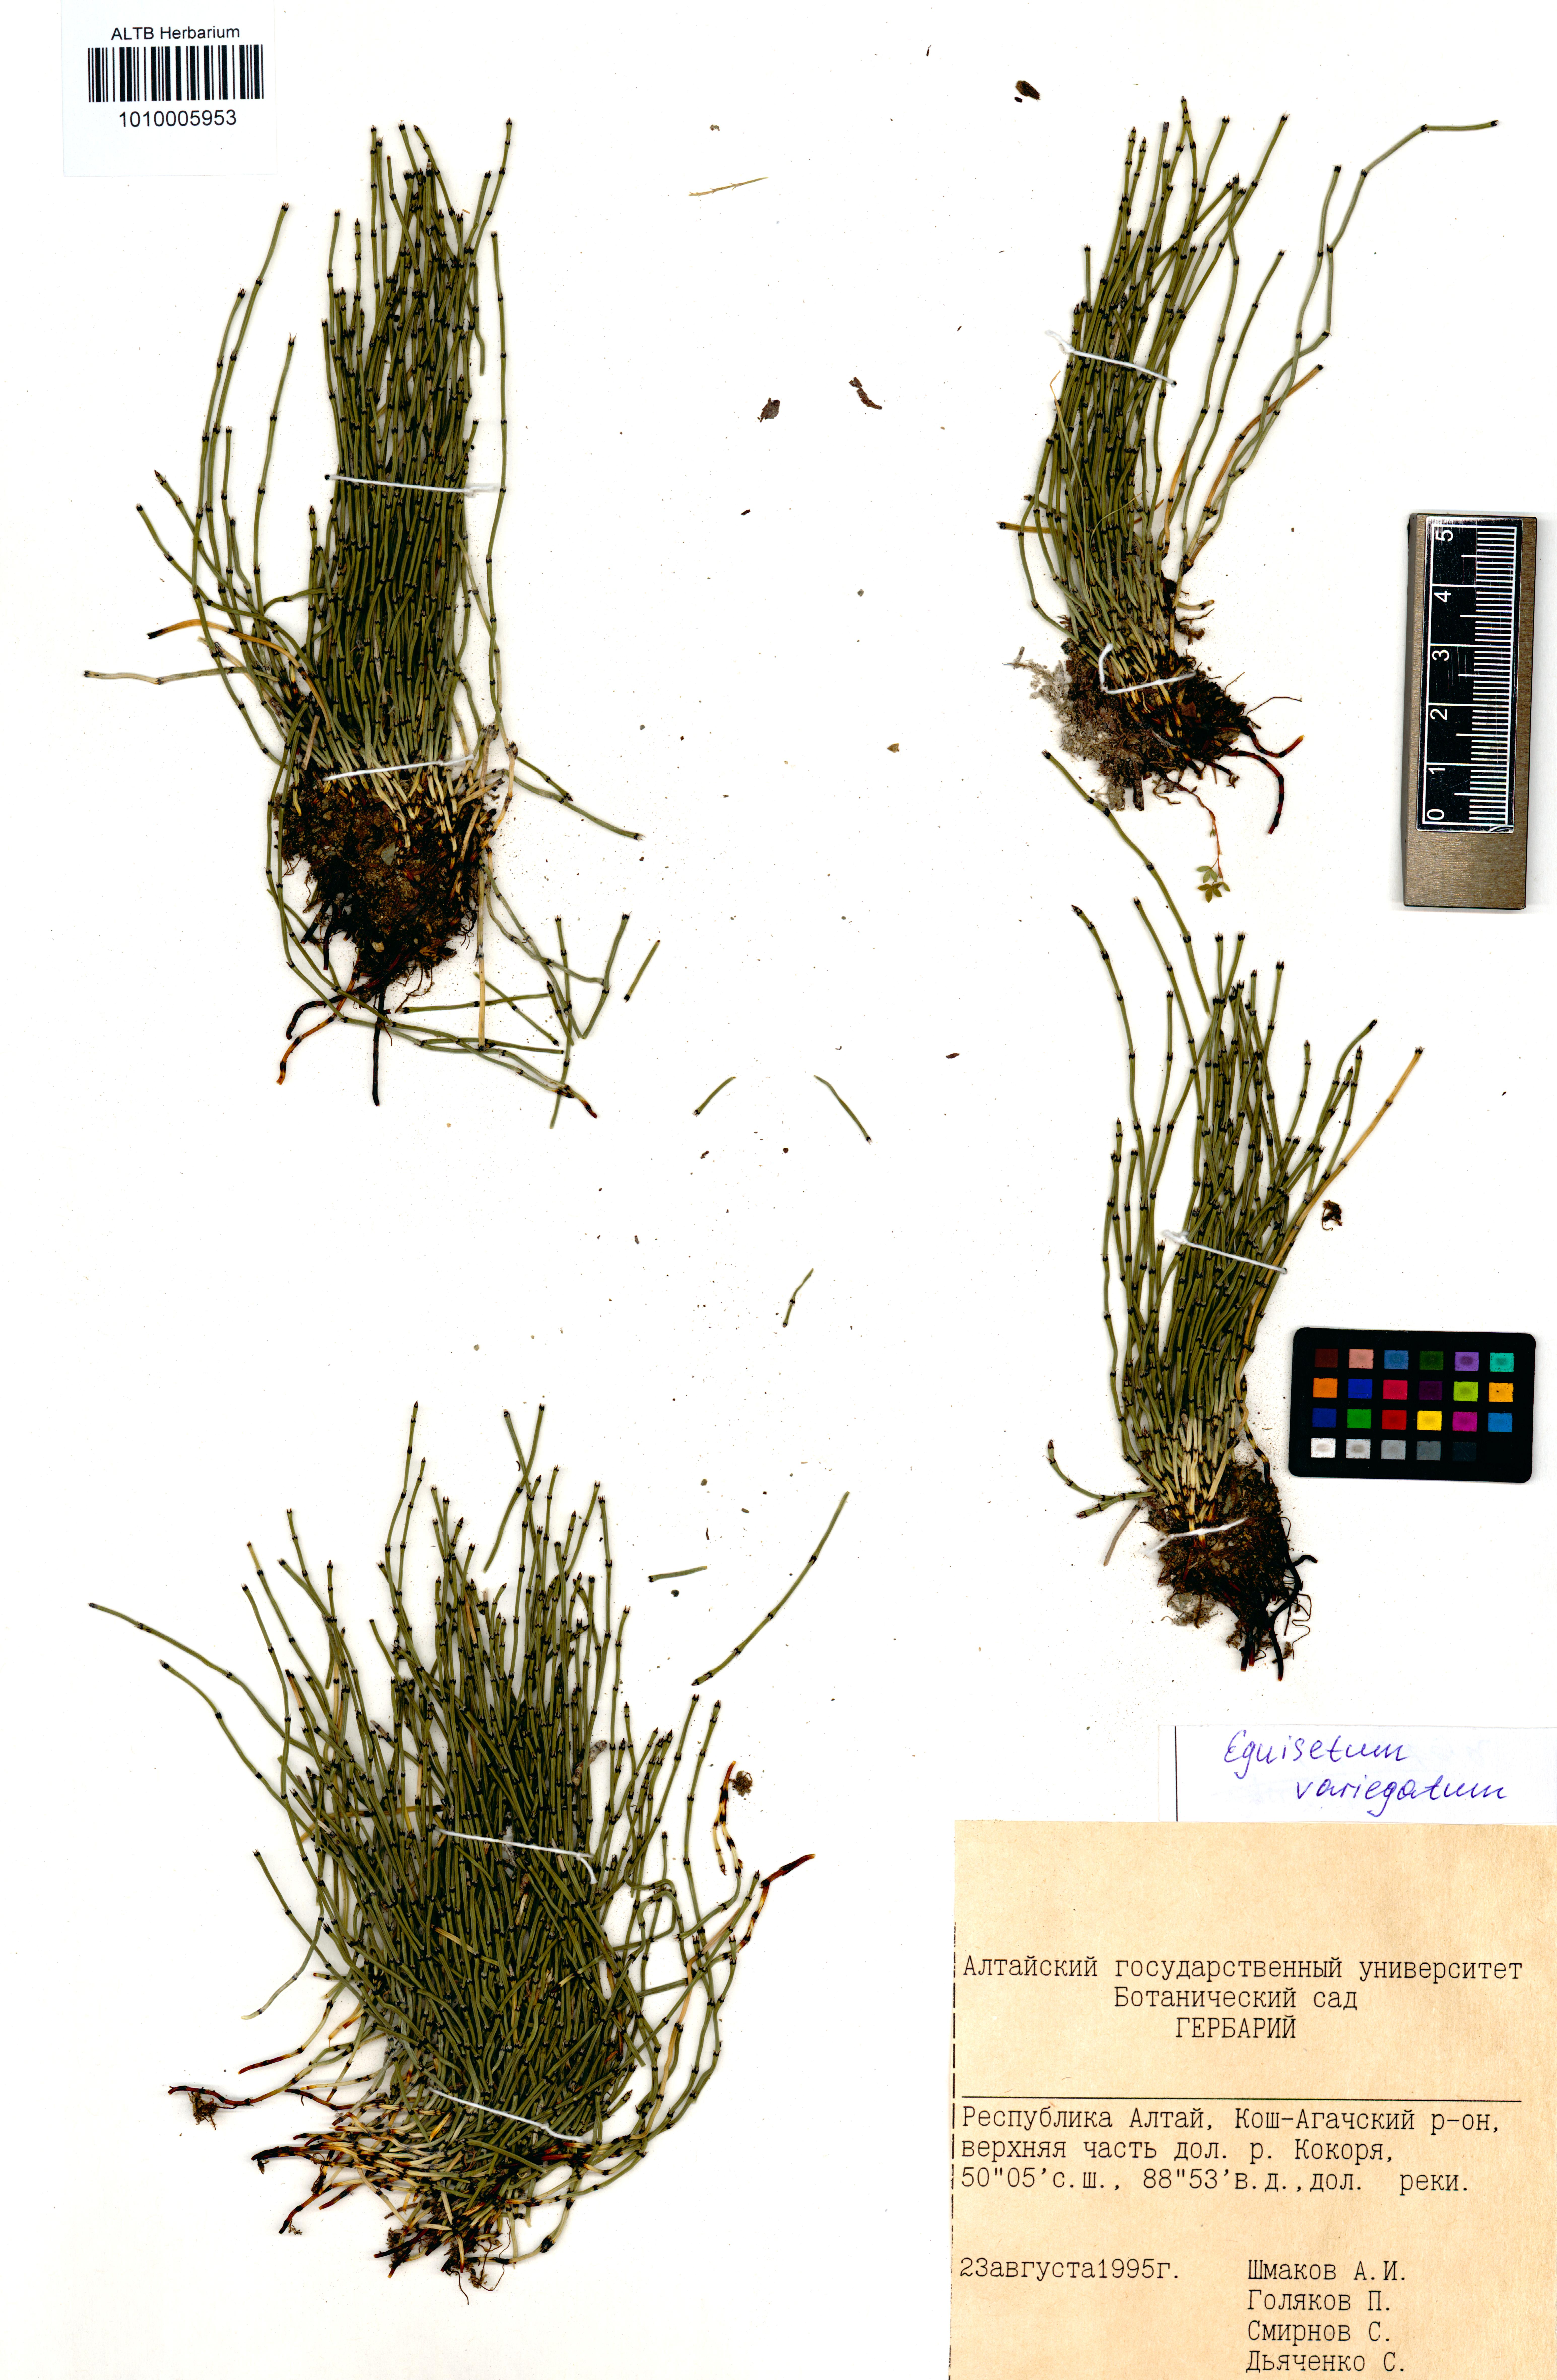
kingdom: Plantae
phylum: Tracheophyta
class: Polypodiopsida
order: Equisetales
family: Equisetaceae
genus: Equisetum
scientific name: Equisetum variegatum
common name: Variegated horsetail
